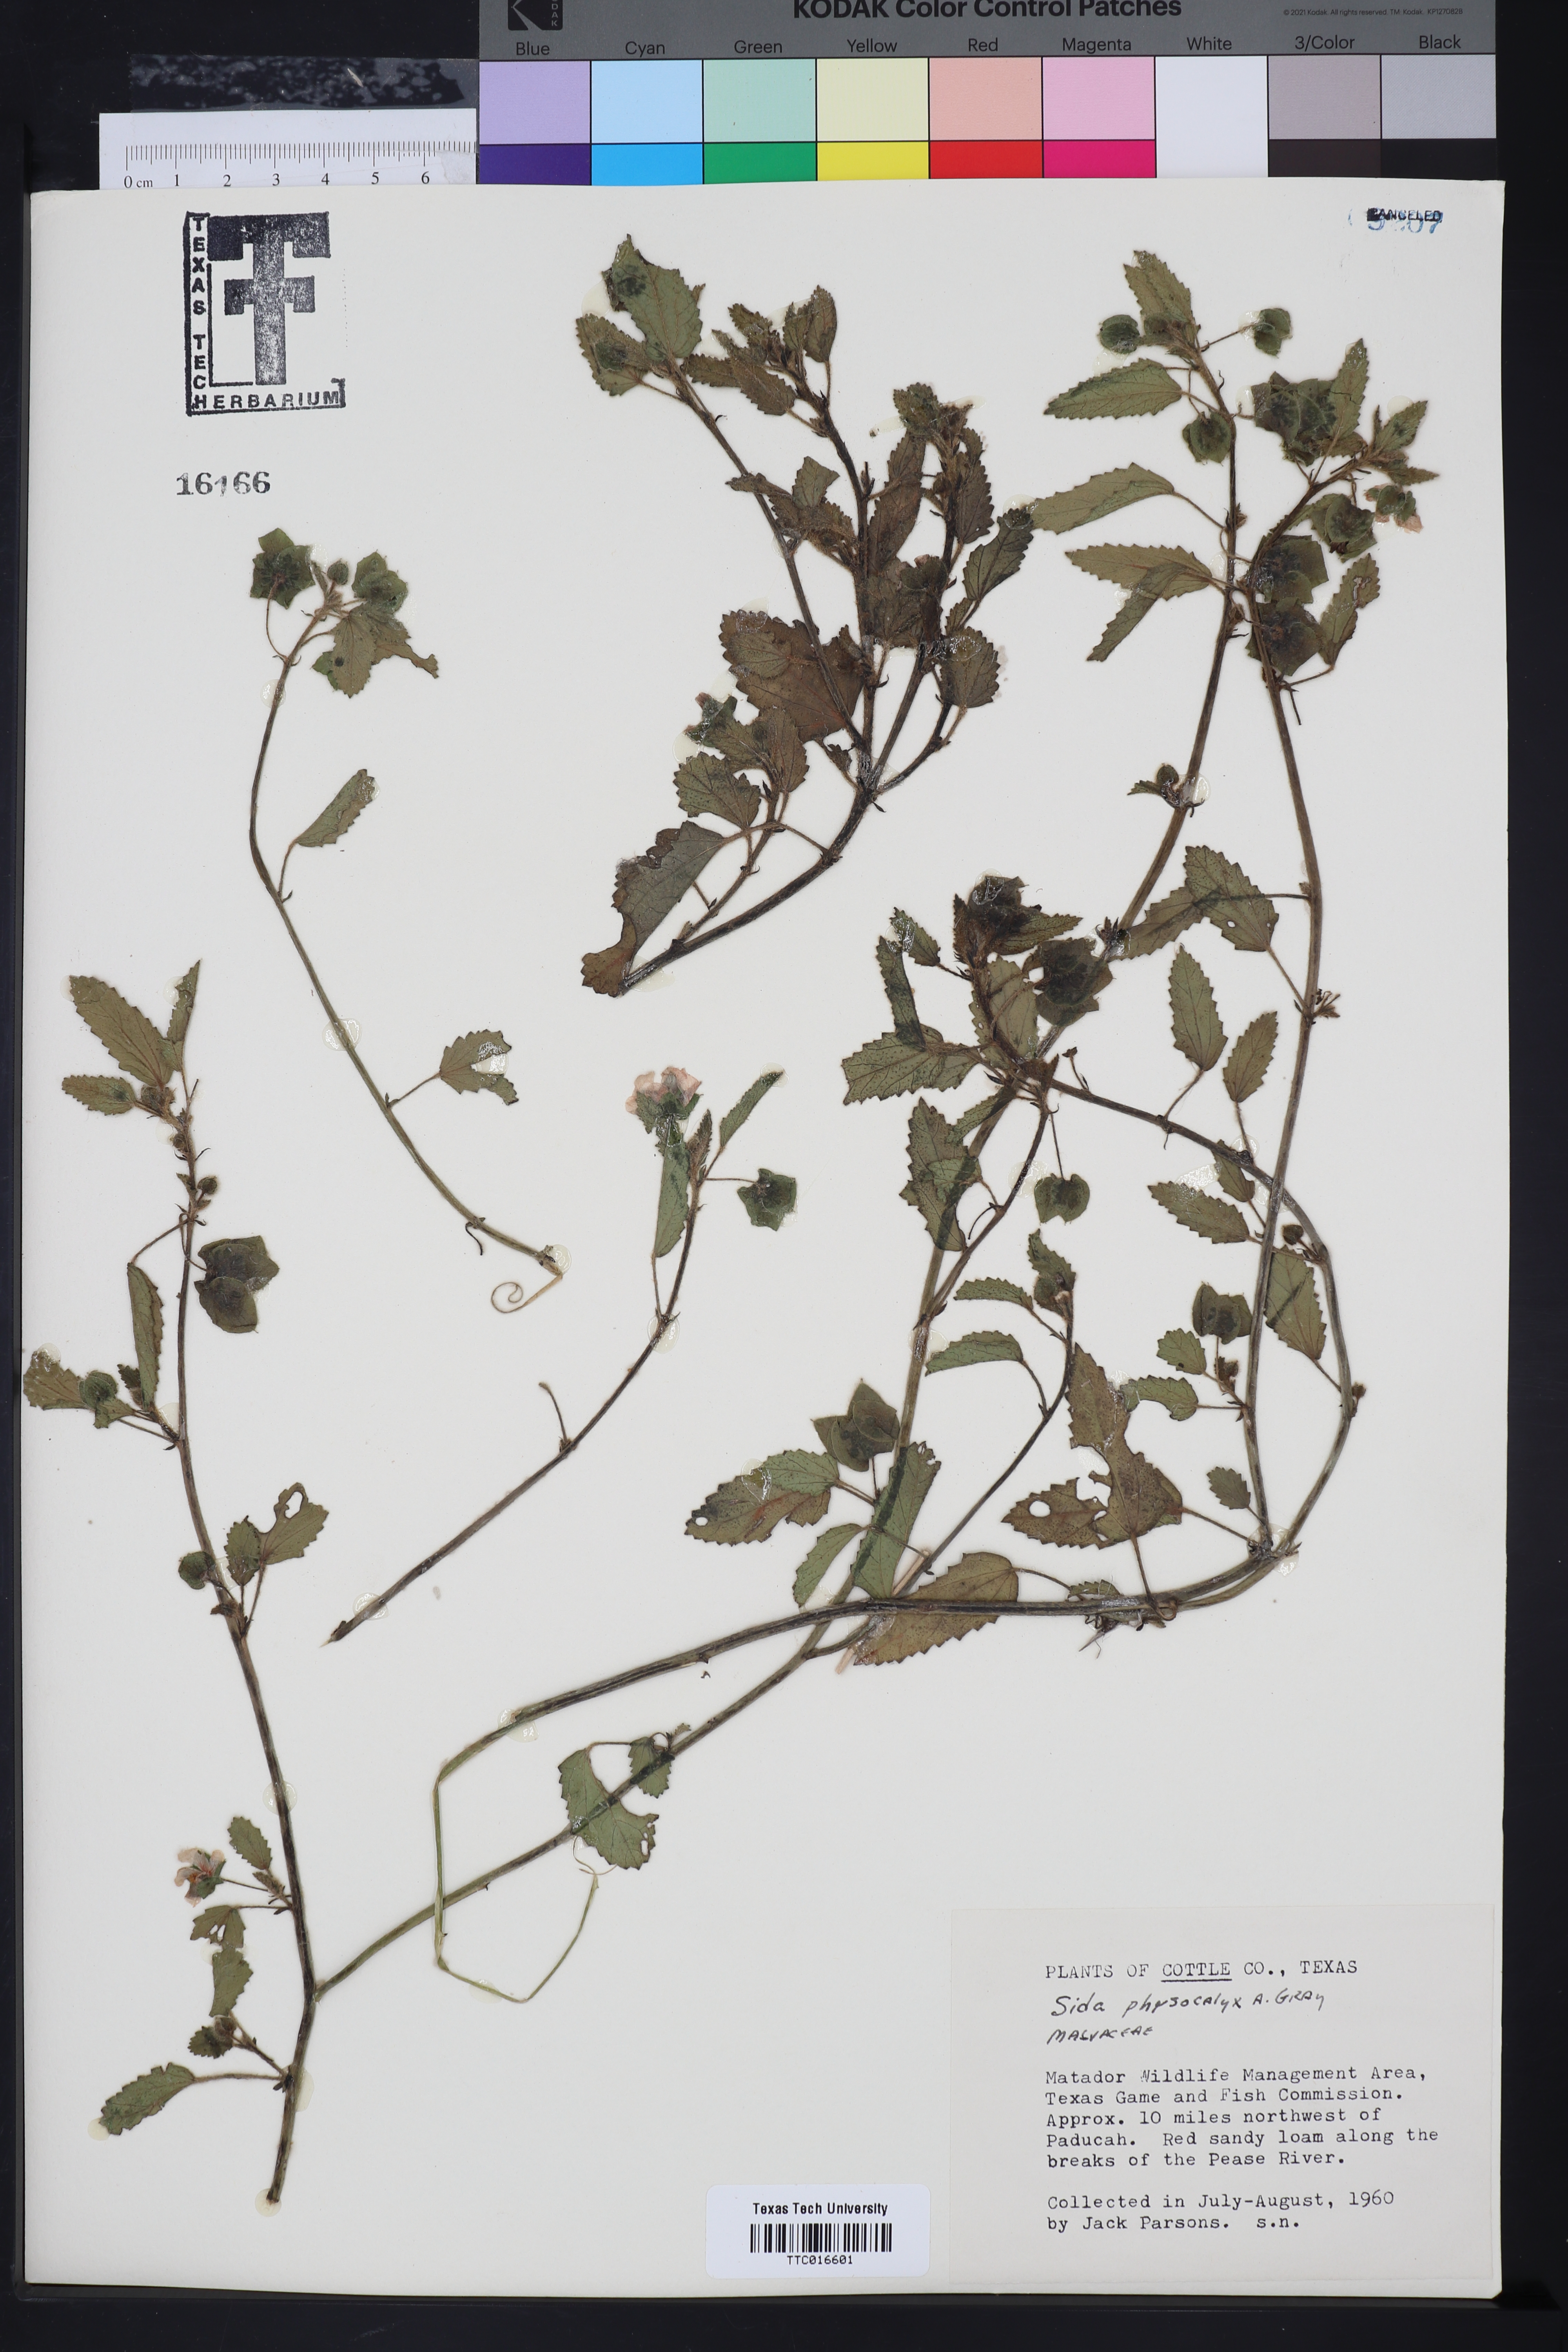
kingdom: Plantae
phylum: Tracheophyta
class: Magnoliopsida
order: Malvales
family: Malvaceae
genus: Rhynchosida
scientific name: Rhynchosida physocalyx
